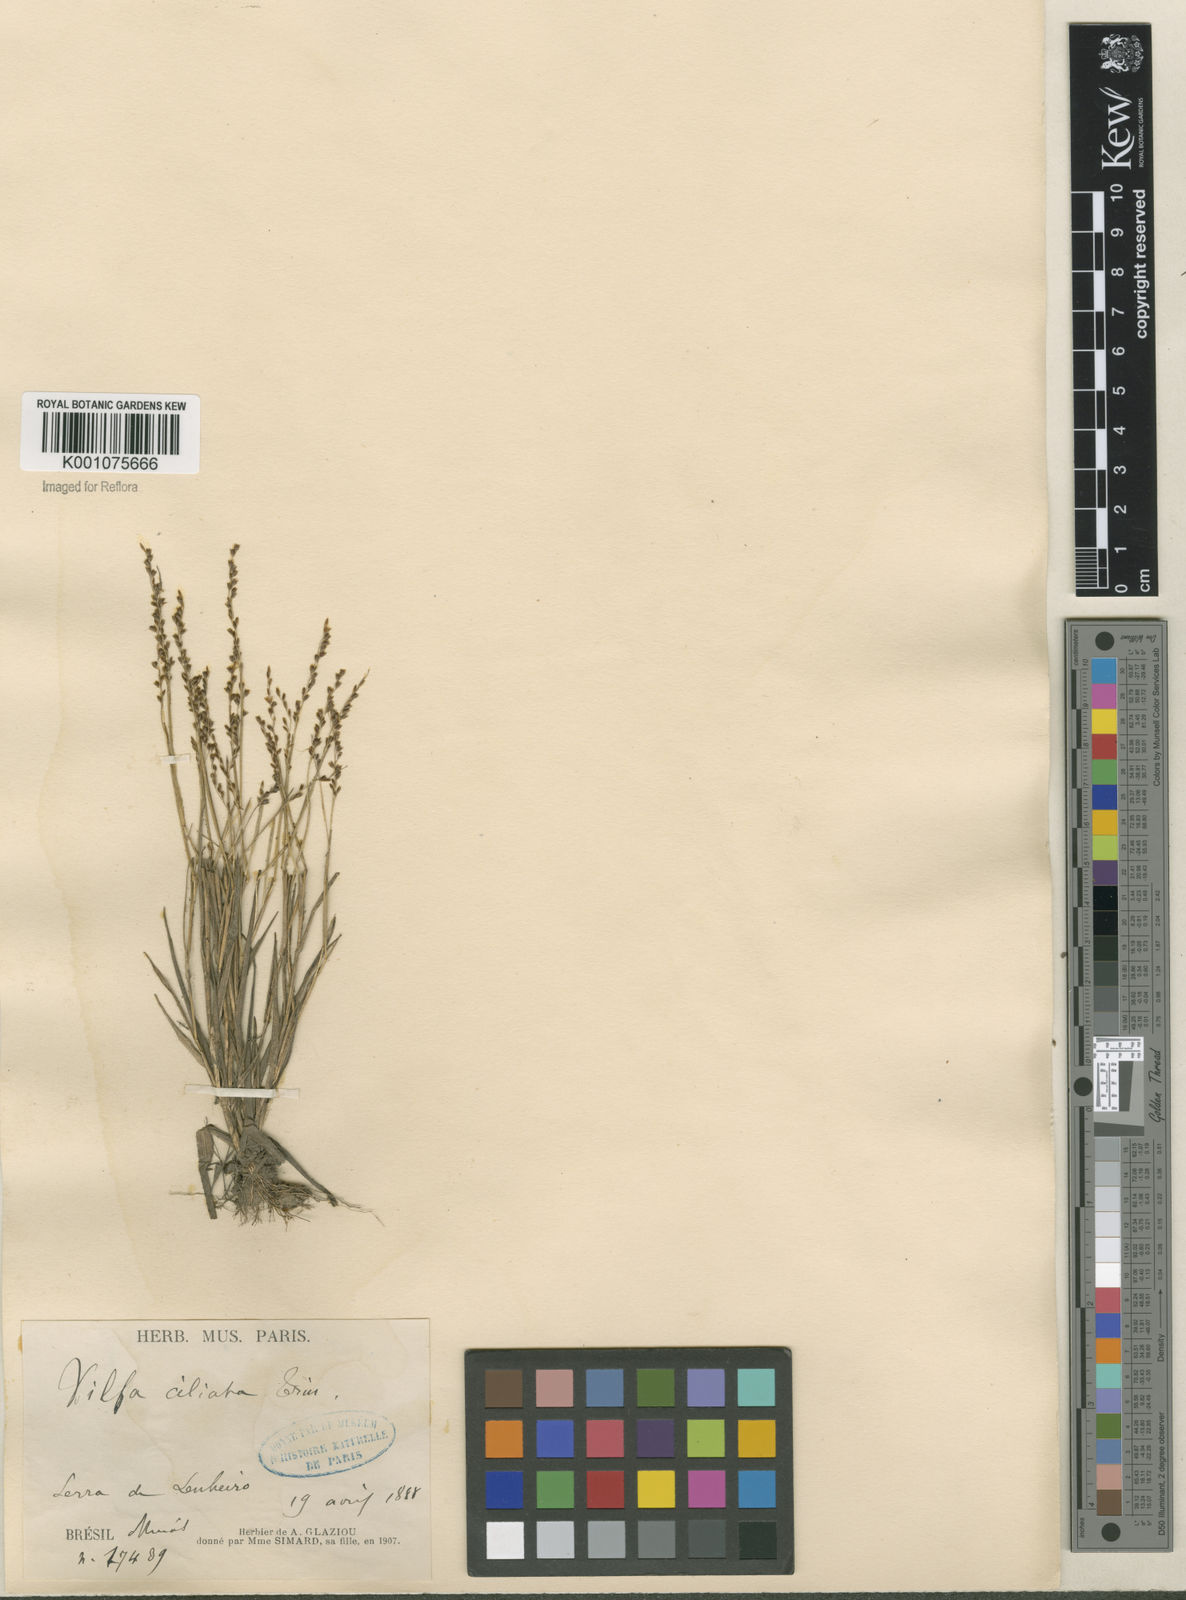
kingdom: Plantae
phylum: Tracheophyta
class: Liliopsida
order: Poales
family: Poaceae
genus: Sporobolus
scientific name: Sporobolus pilifer
